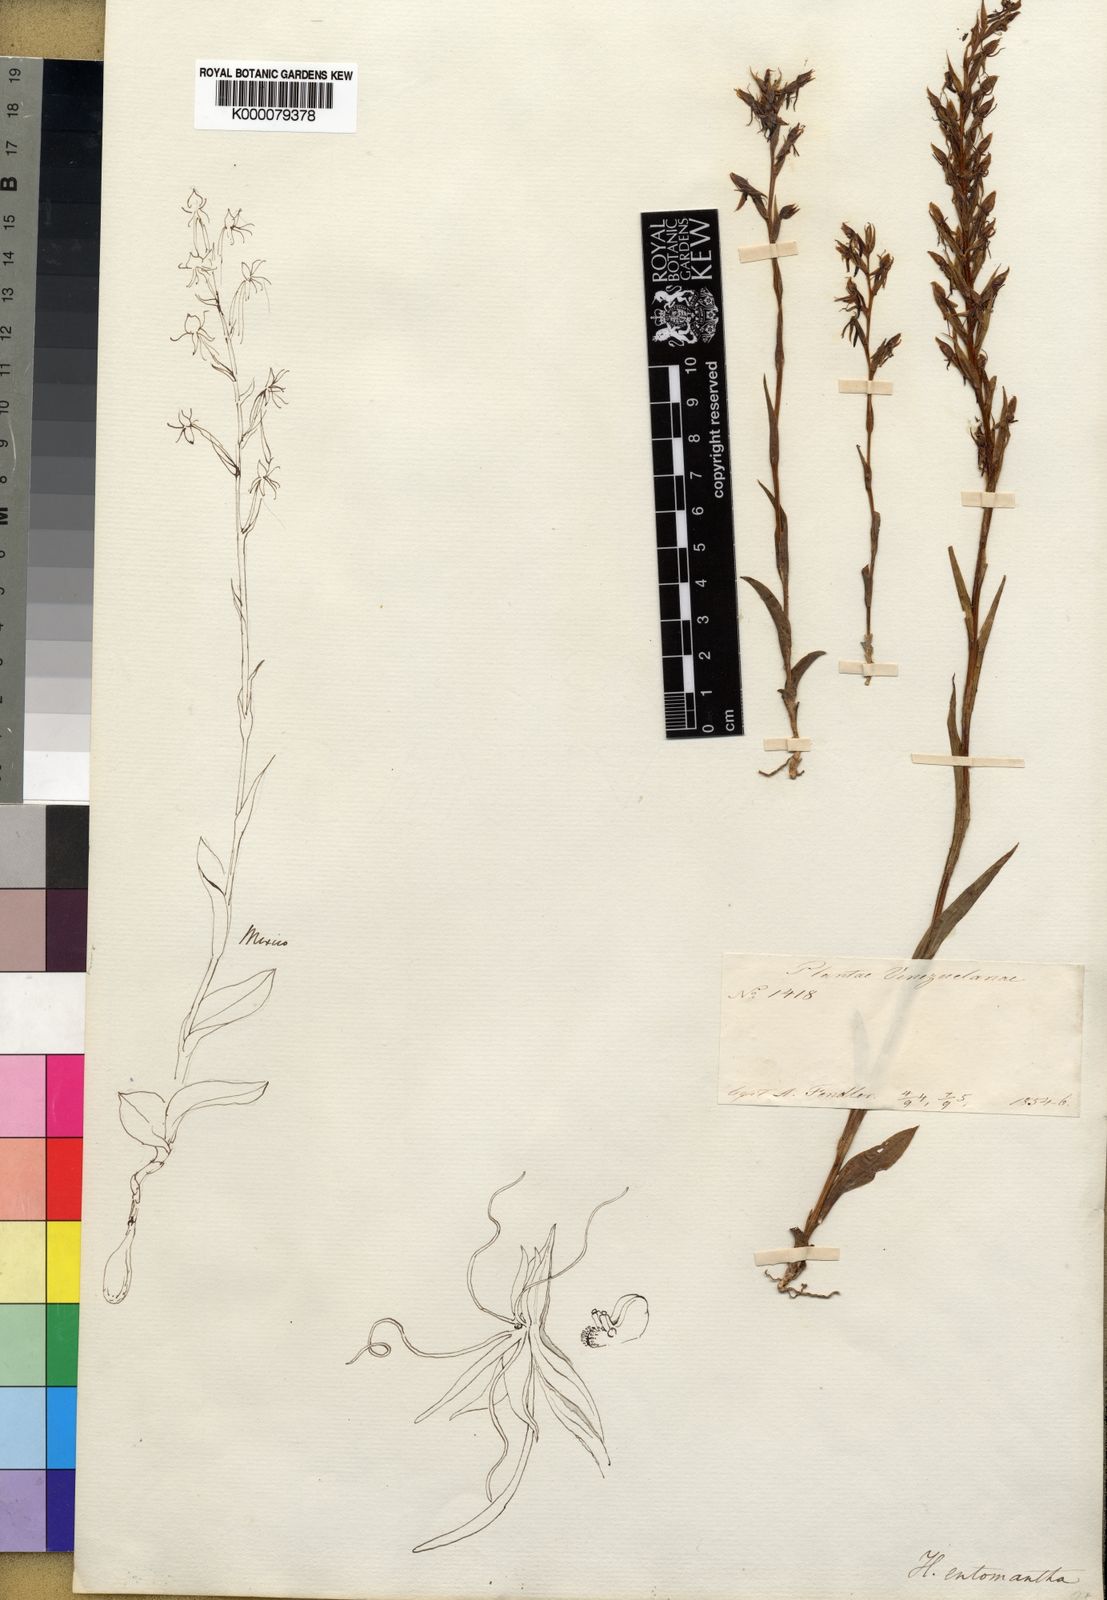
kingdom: Plantae
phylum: Tracheophyta
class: Liliopsida
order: Asparagales
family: Orchidaceae
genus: Habenaria
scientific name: Habenaria entomantha
